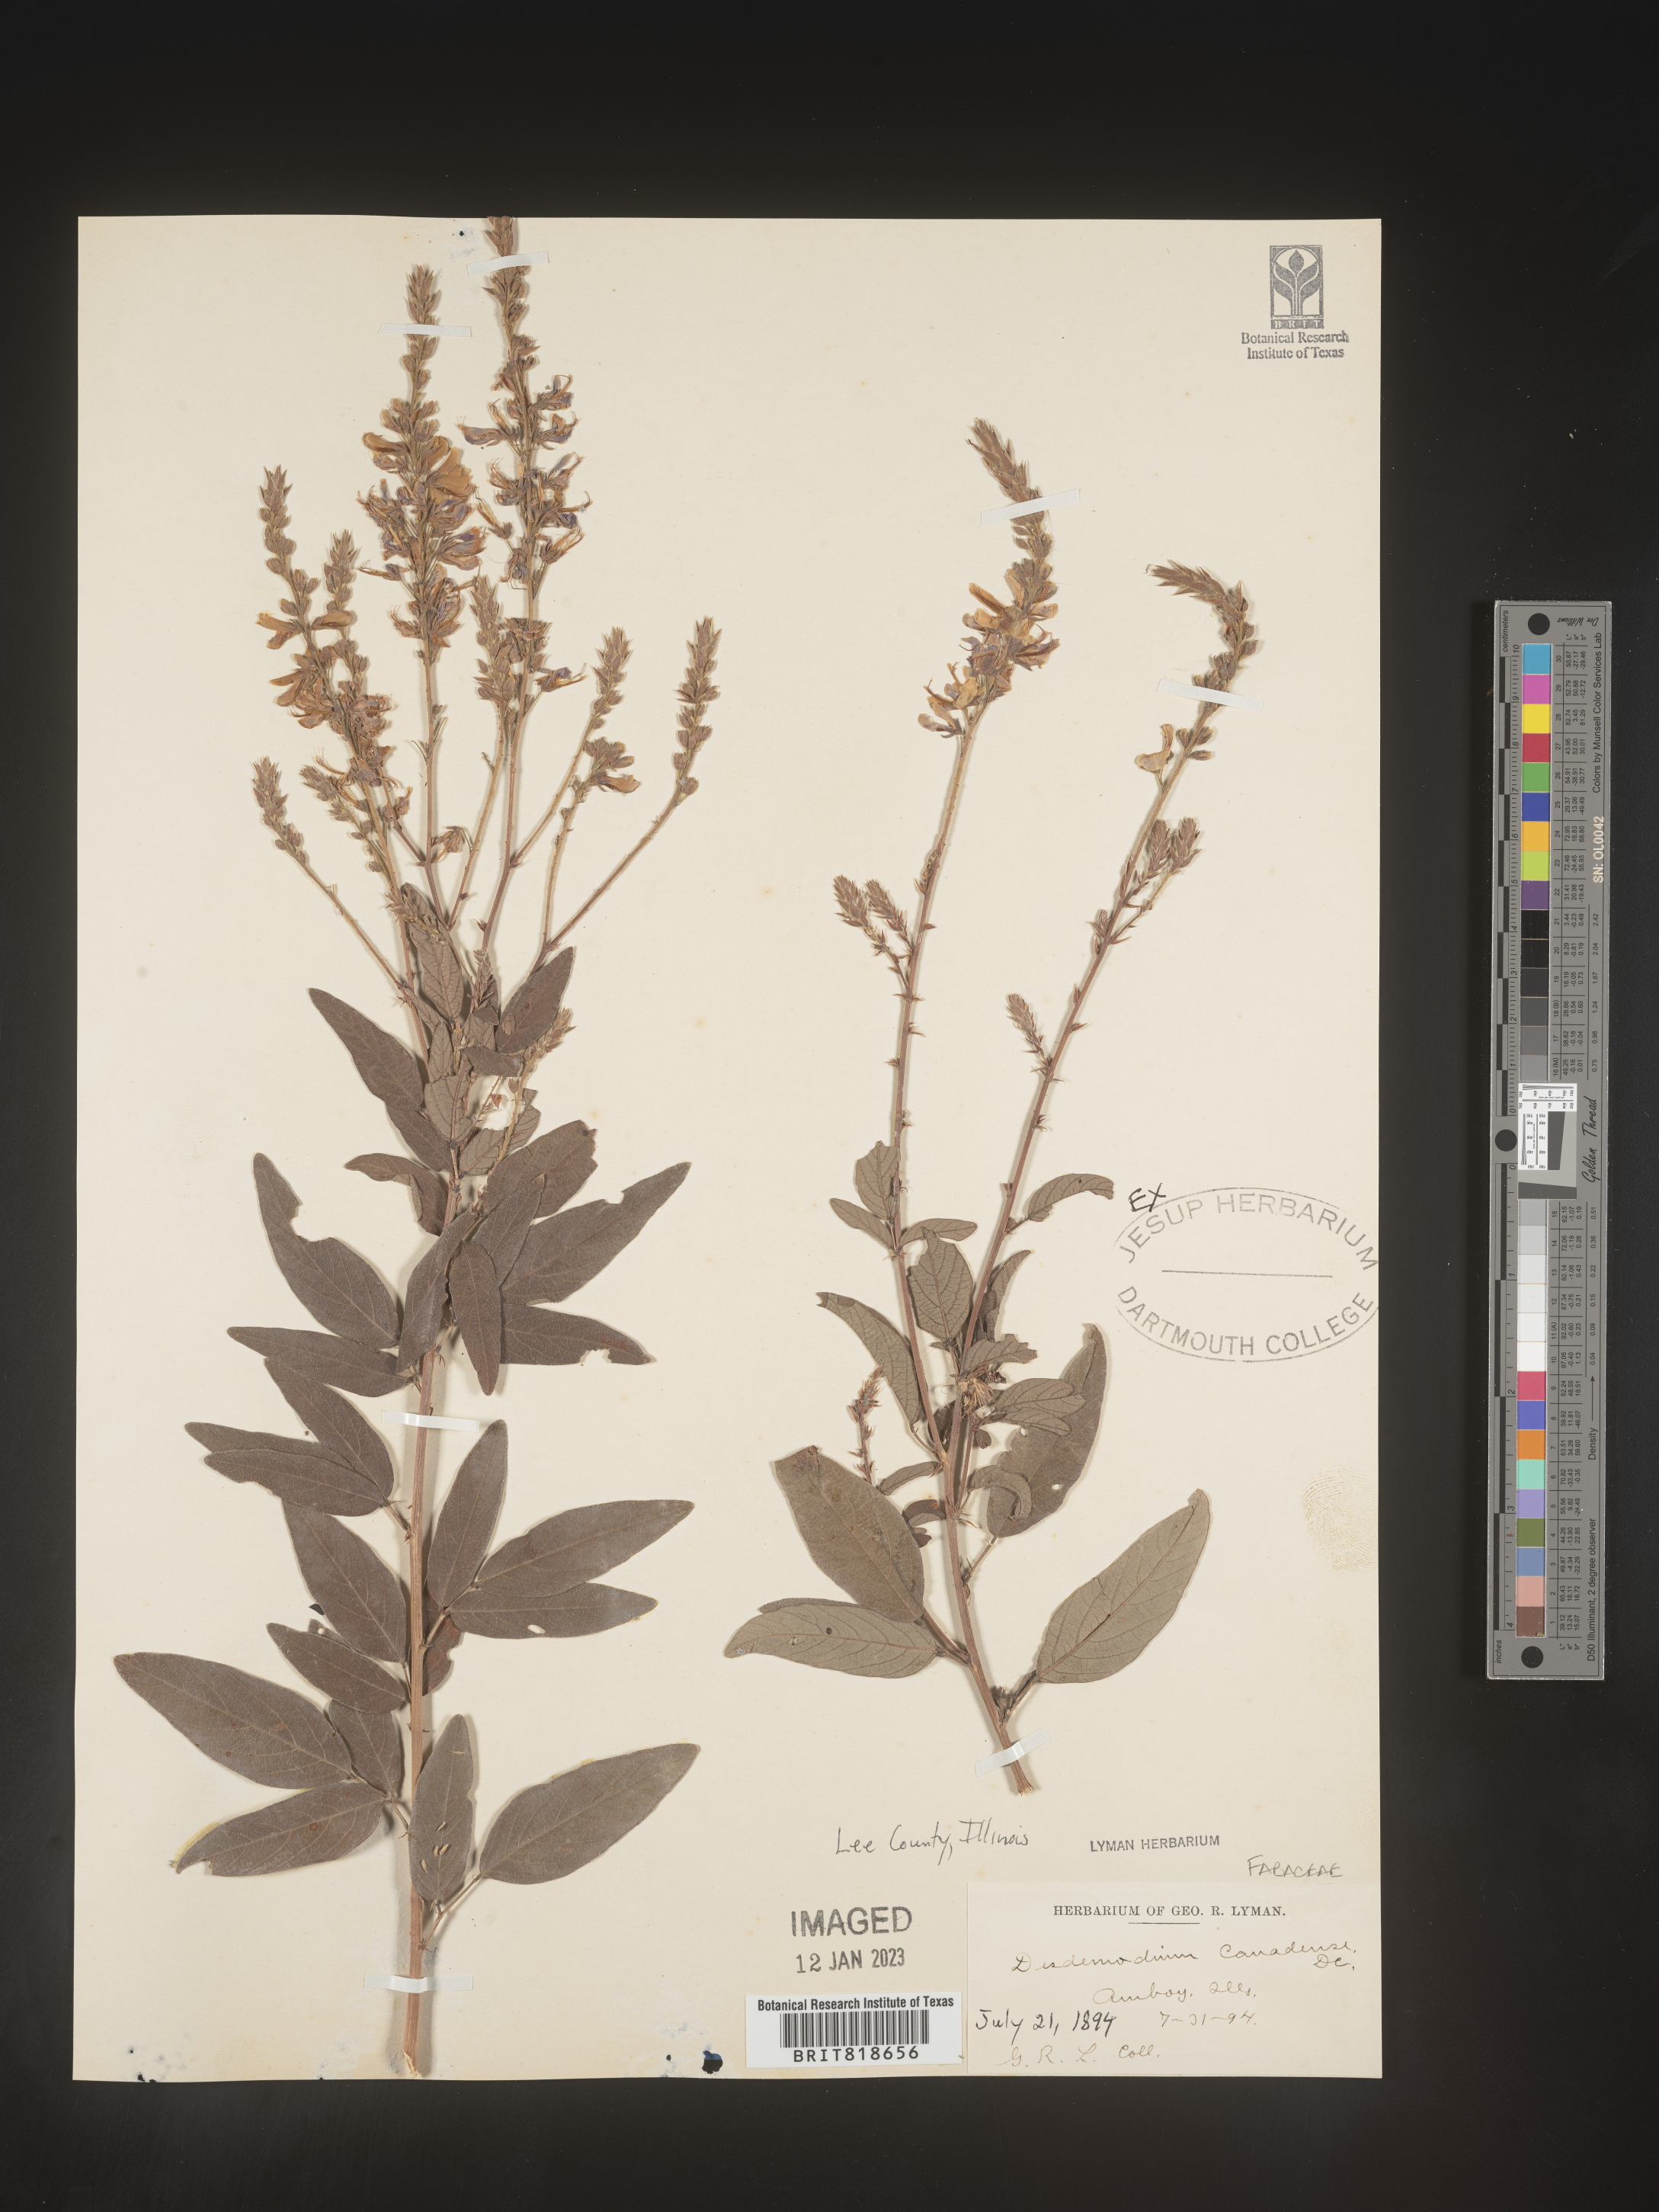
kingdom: Plantae
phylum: Tracheophyta
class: Magnoliopsida
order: Fabales
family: Fabaceae
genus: Desmodium
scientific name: Desmodium canadense
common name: Canada tick-trefoil
